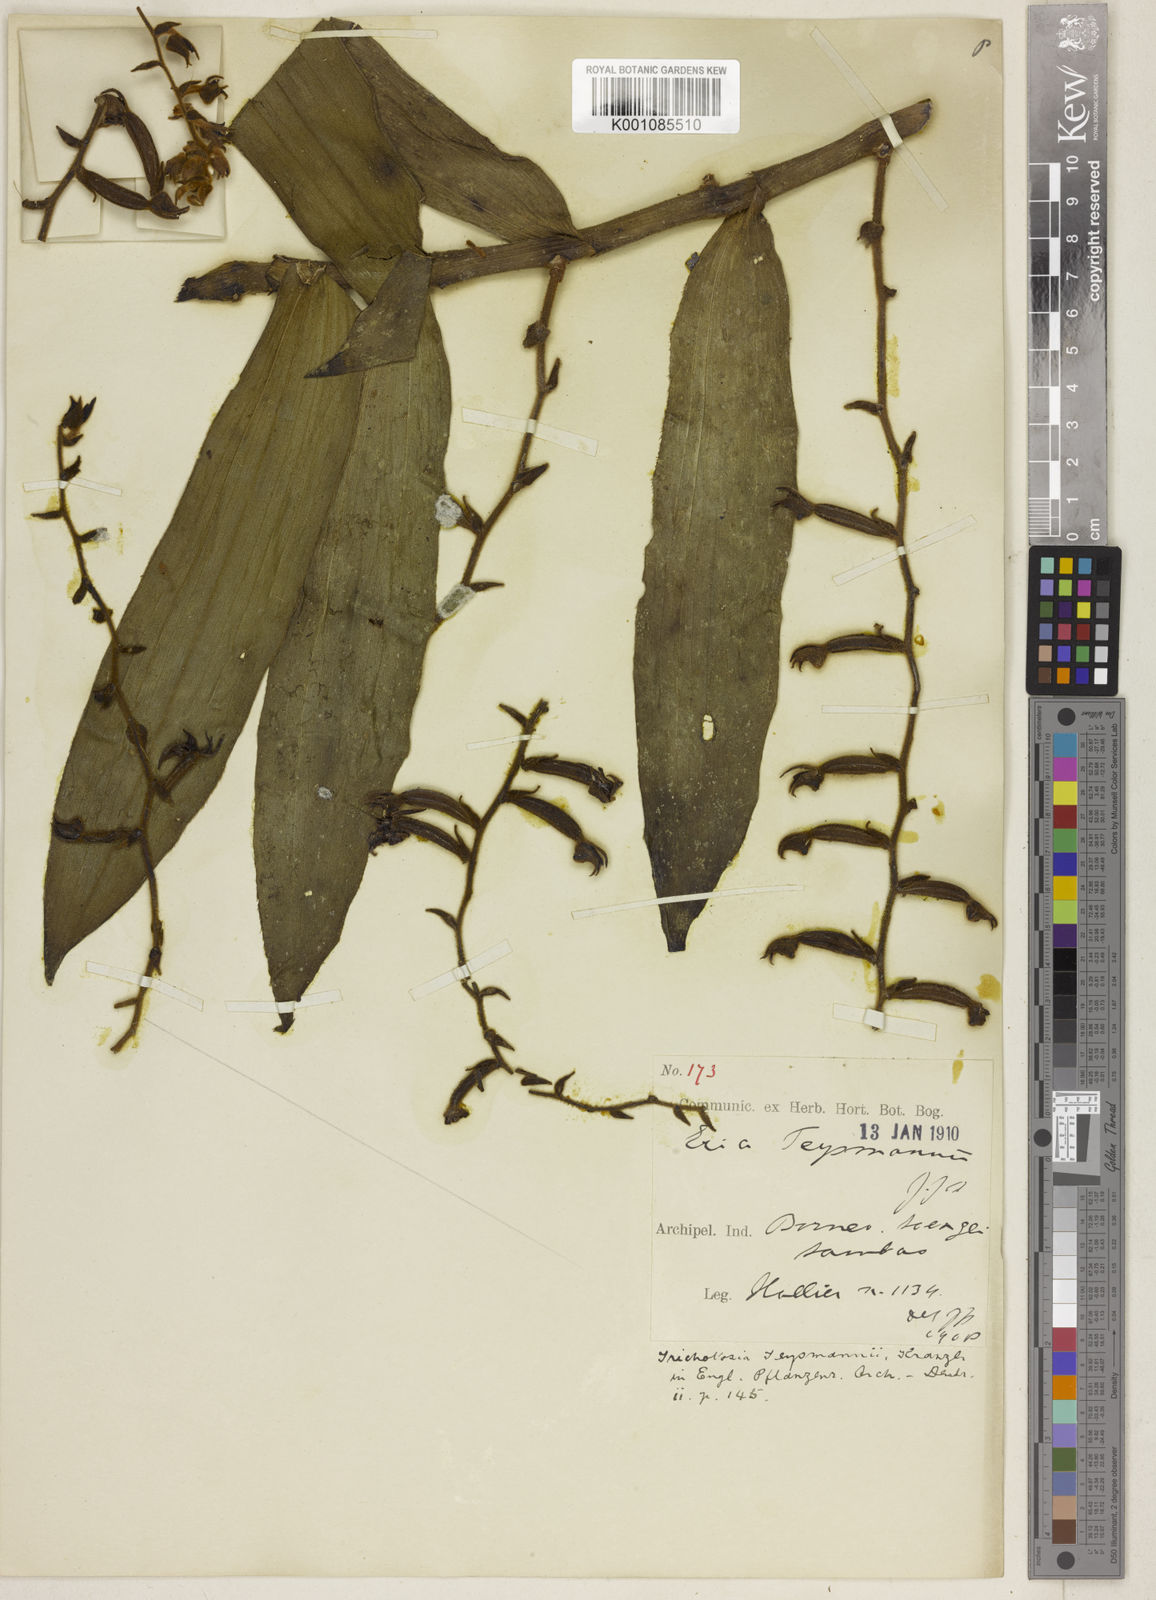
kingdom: Plantae
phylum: Tracheophyta
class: Liliopsida
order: Asparagales
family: Orchidaceae
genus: Trichotosia
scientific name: Trichotosia teysmannii
